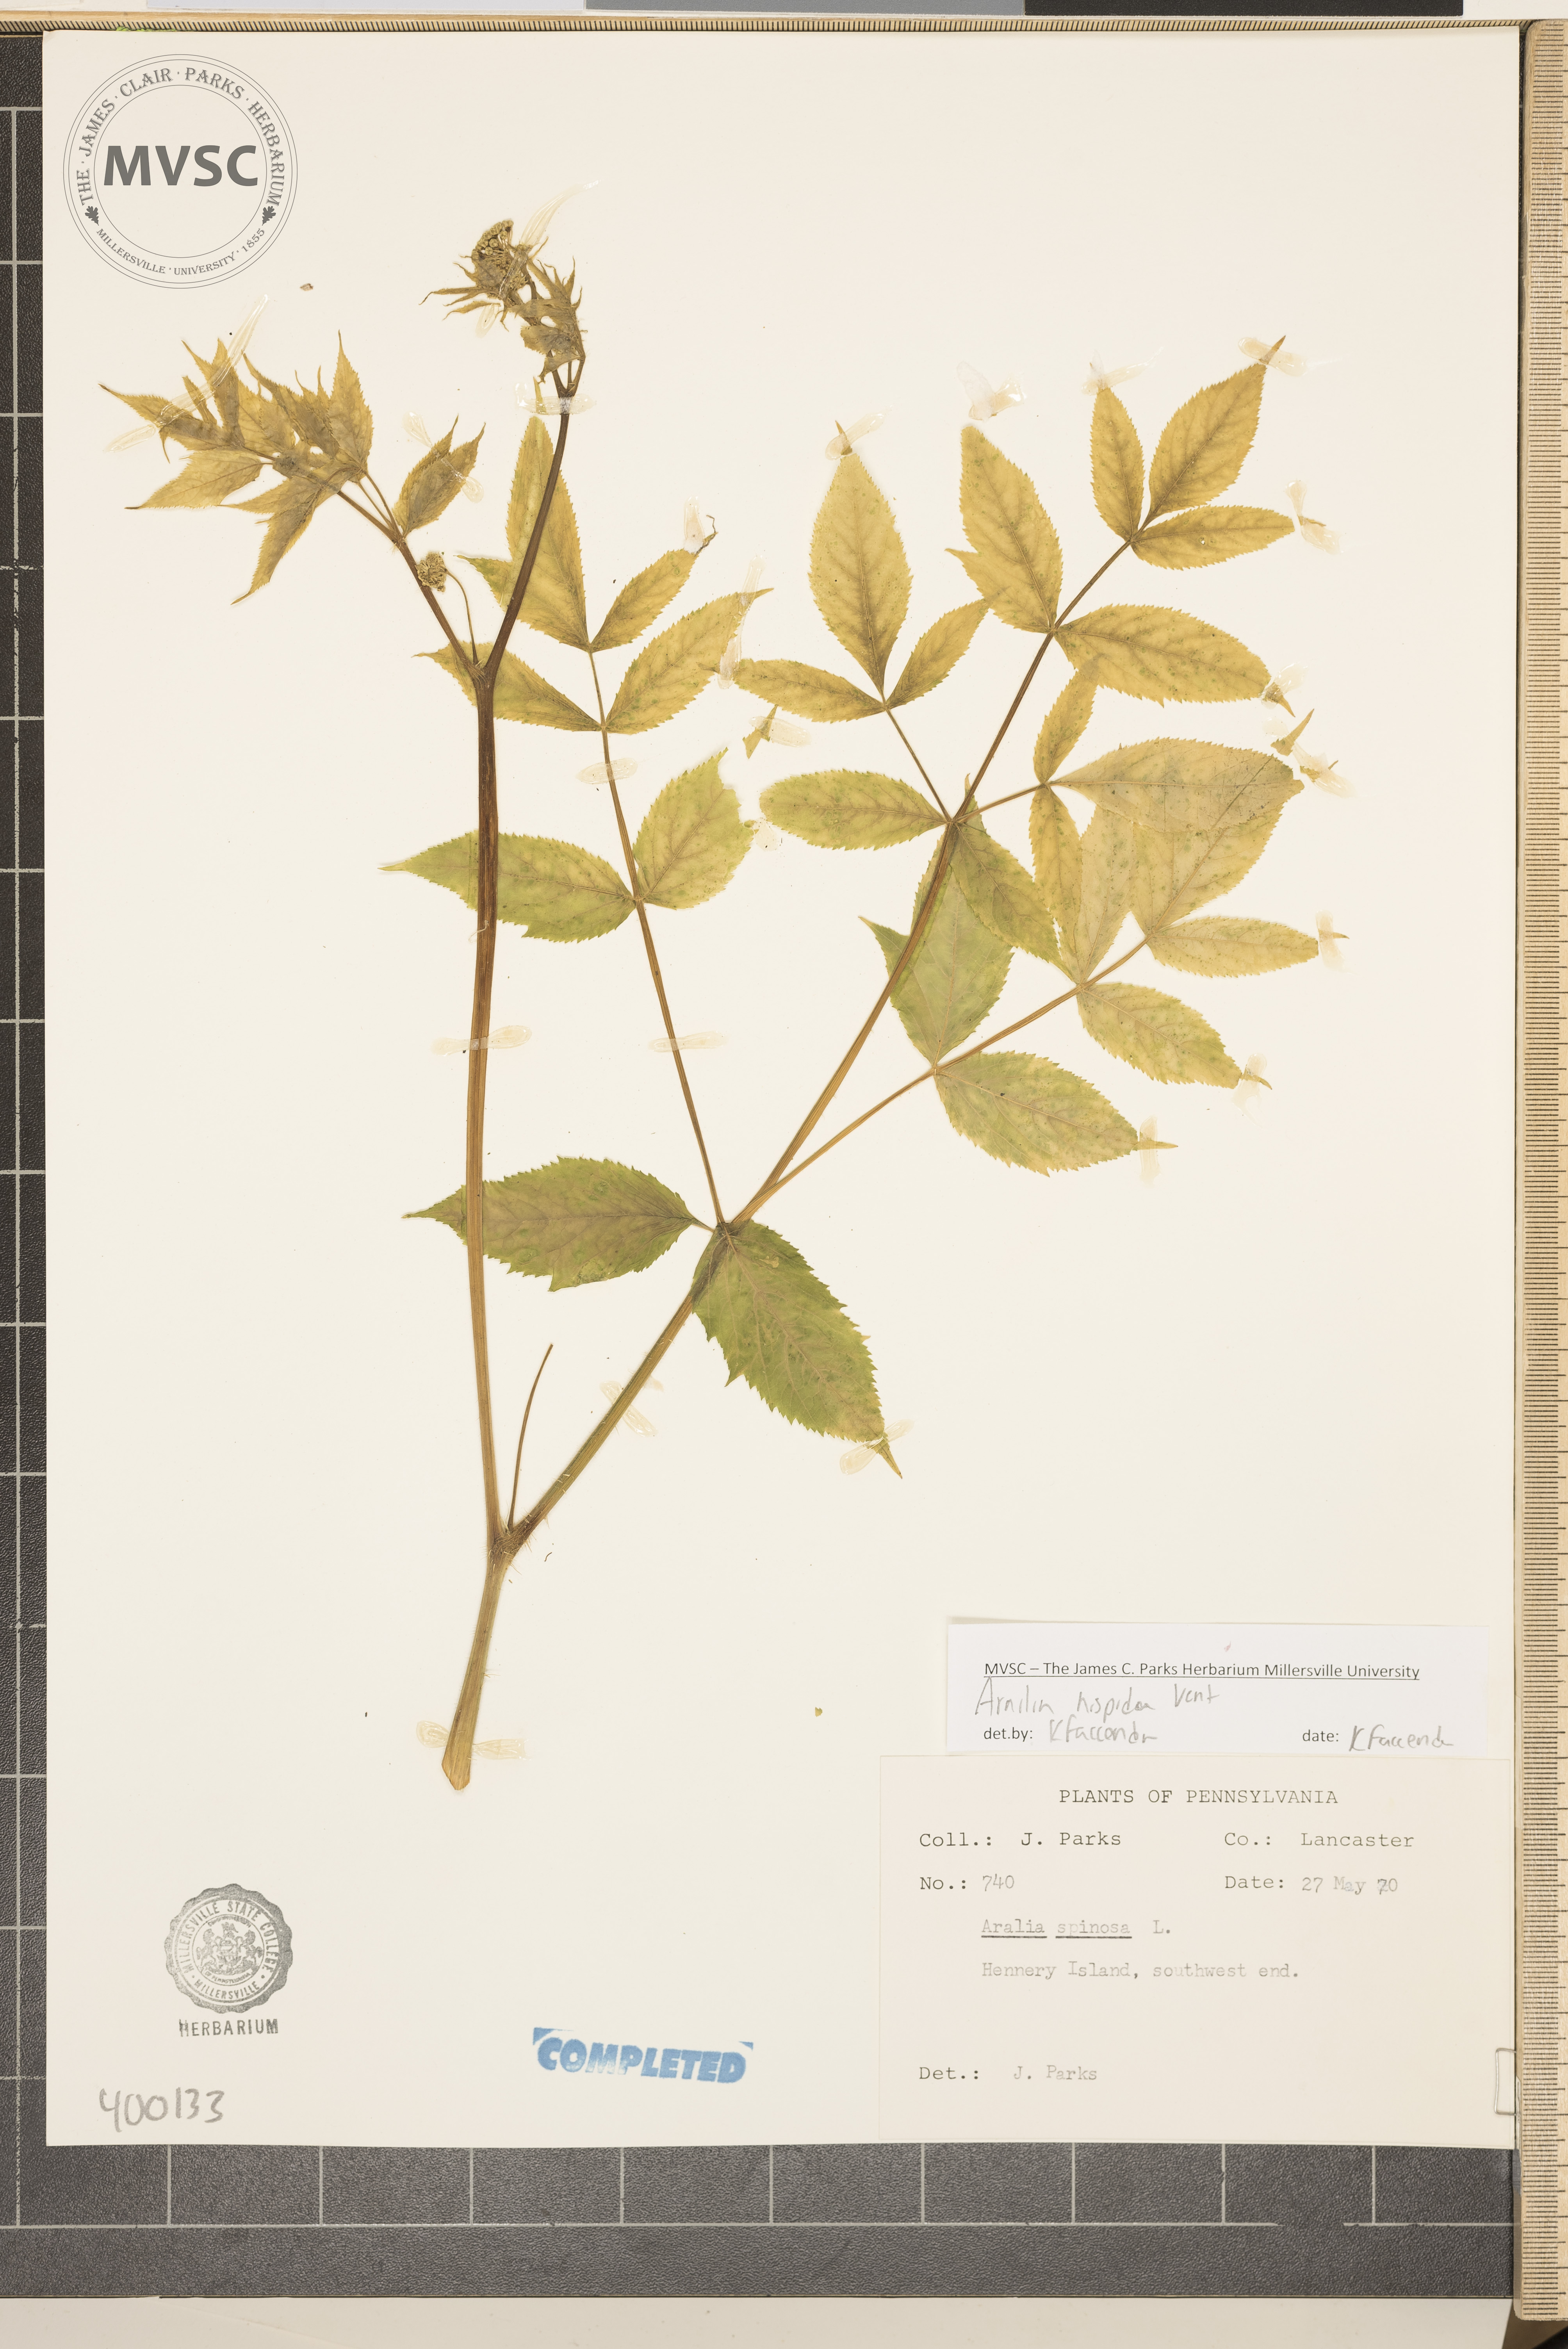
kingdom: Plantae
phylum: Tracheophyta
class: Magnoliopsida
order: Apiales
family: Araliaceae
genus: Aralia
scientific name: Aralia hispida
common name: Devil's club
